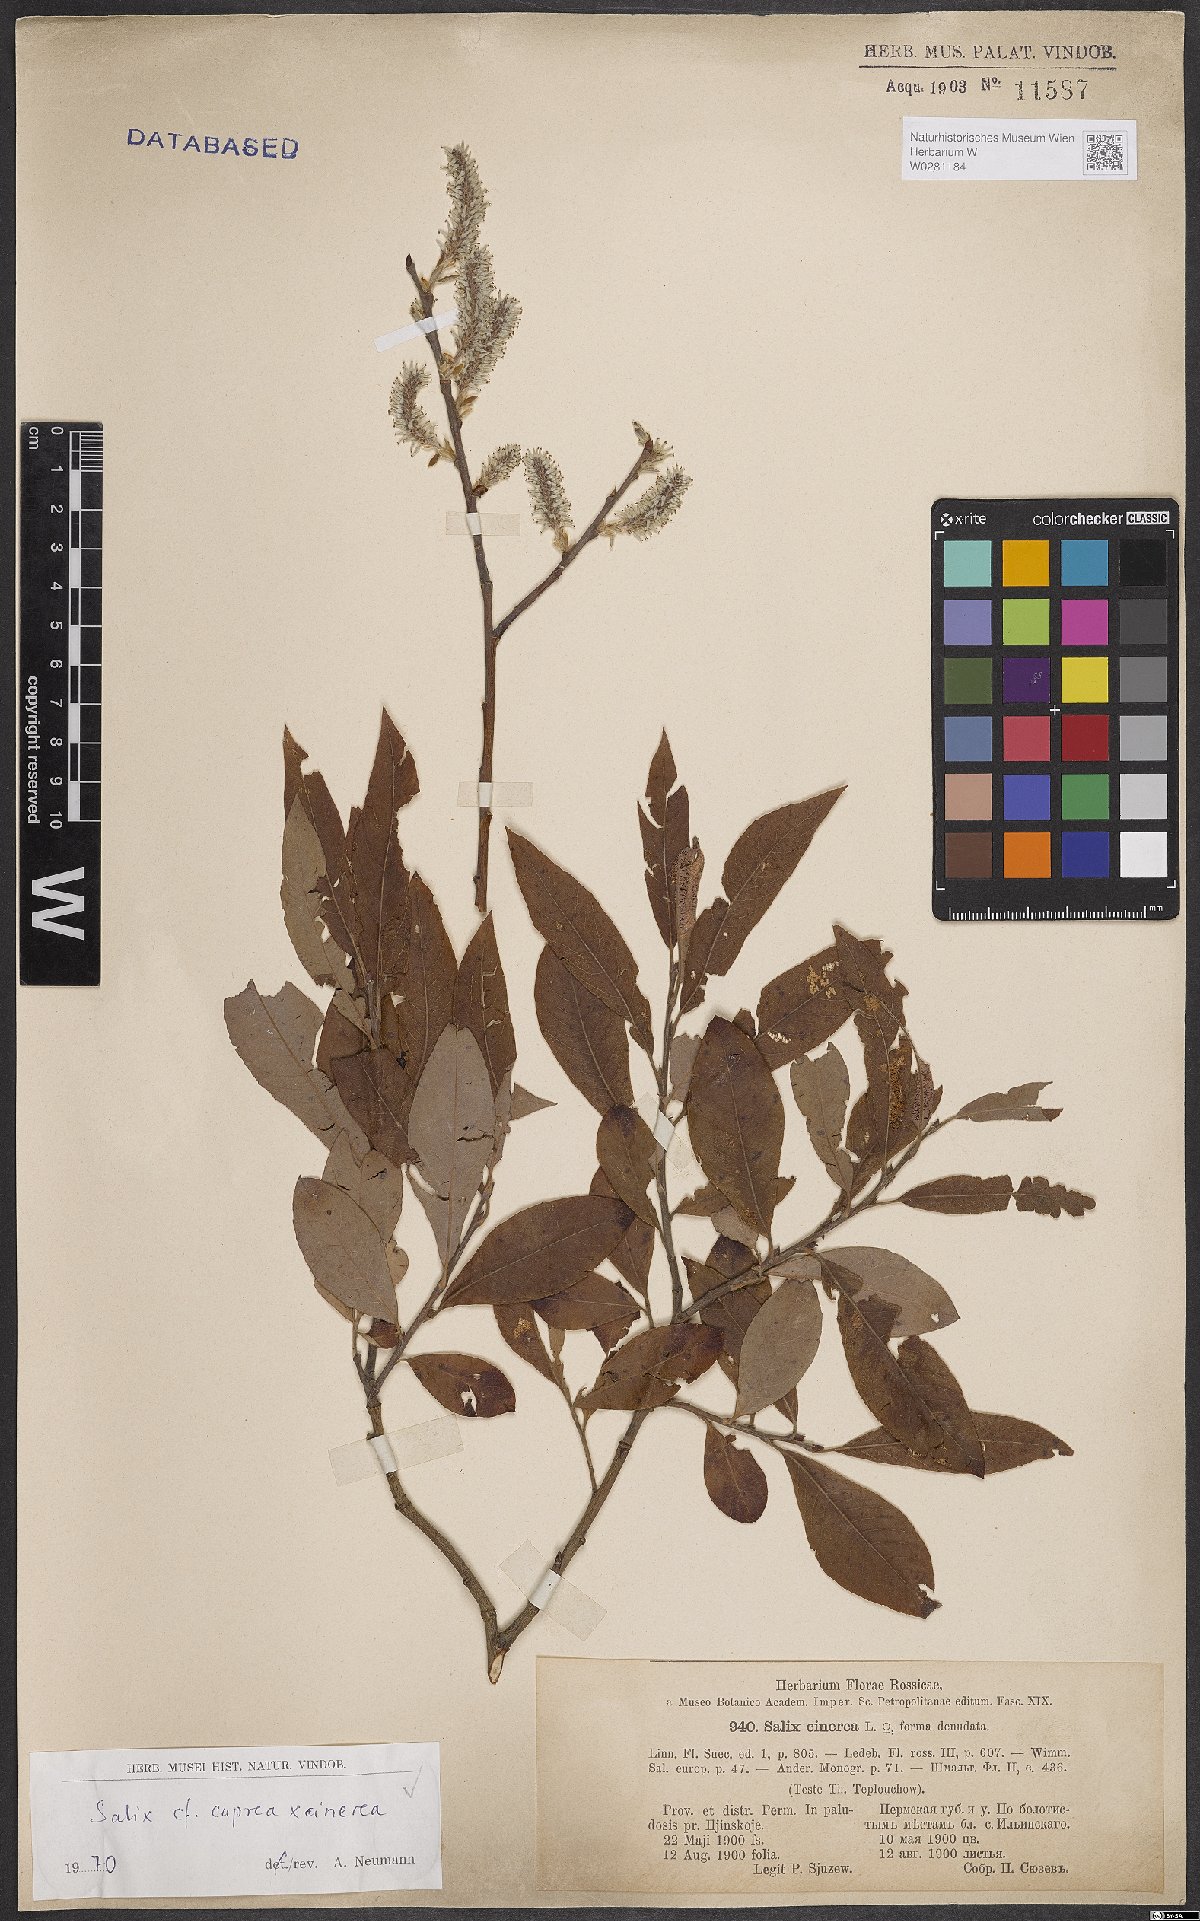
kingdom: Plantae
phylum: Tracheophyta
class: Magnoliopsida
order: Malpighiales
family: Salicaceae
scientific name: Salicaceae
